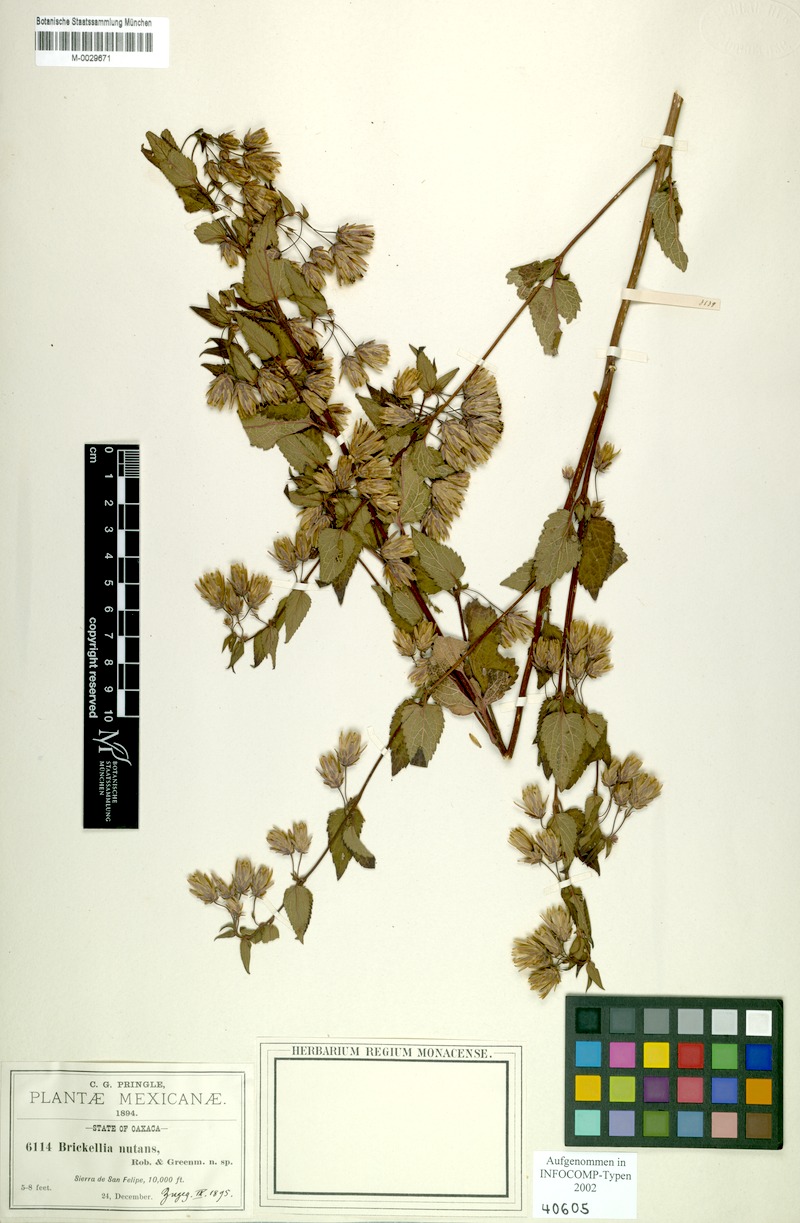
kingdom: Plantae
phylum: Tracheophyta
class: Magnoliopsida
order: Asterales
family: Asteraceae
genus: Brickellia
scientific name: Brickellia nutanticeps
